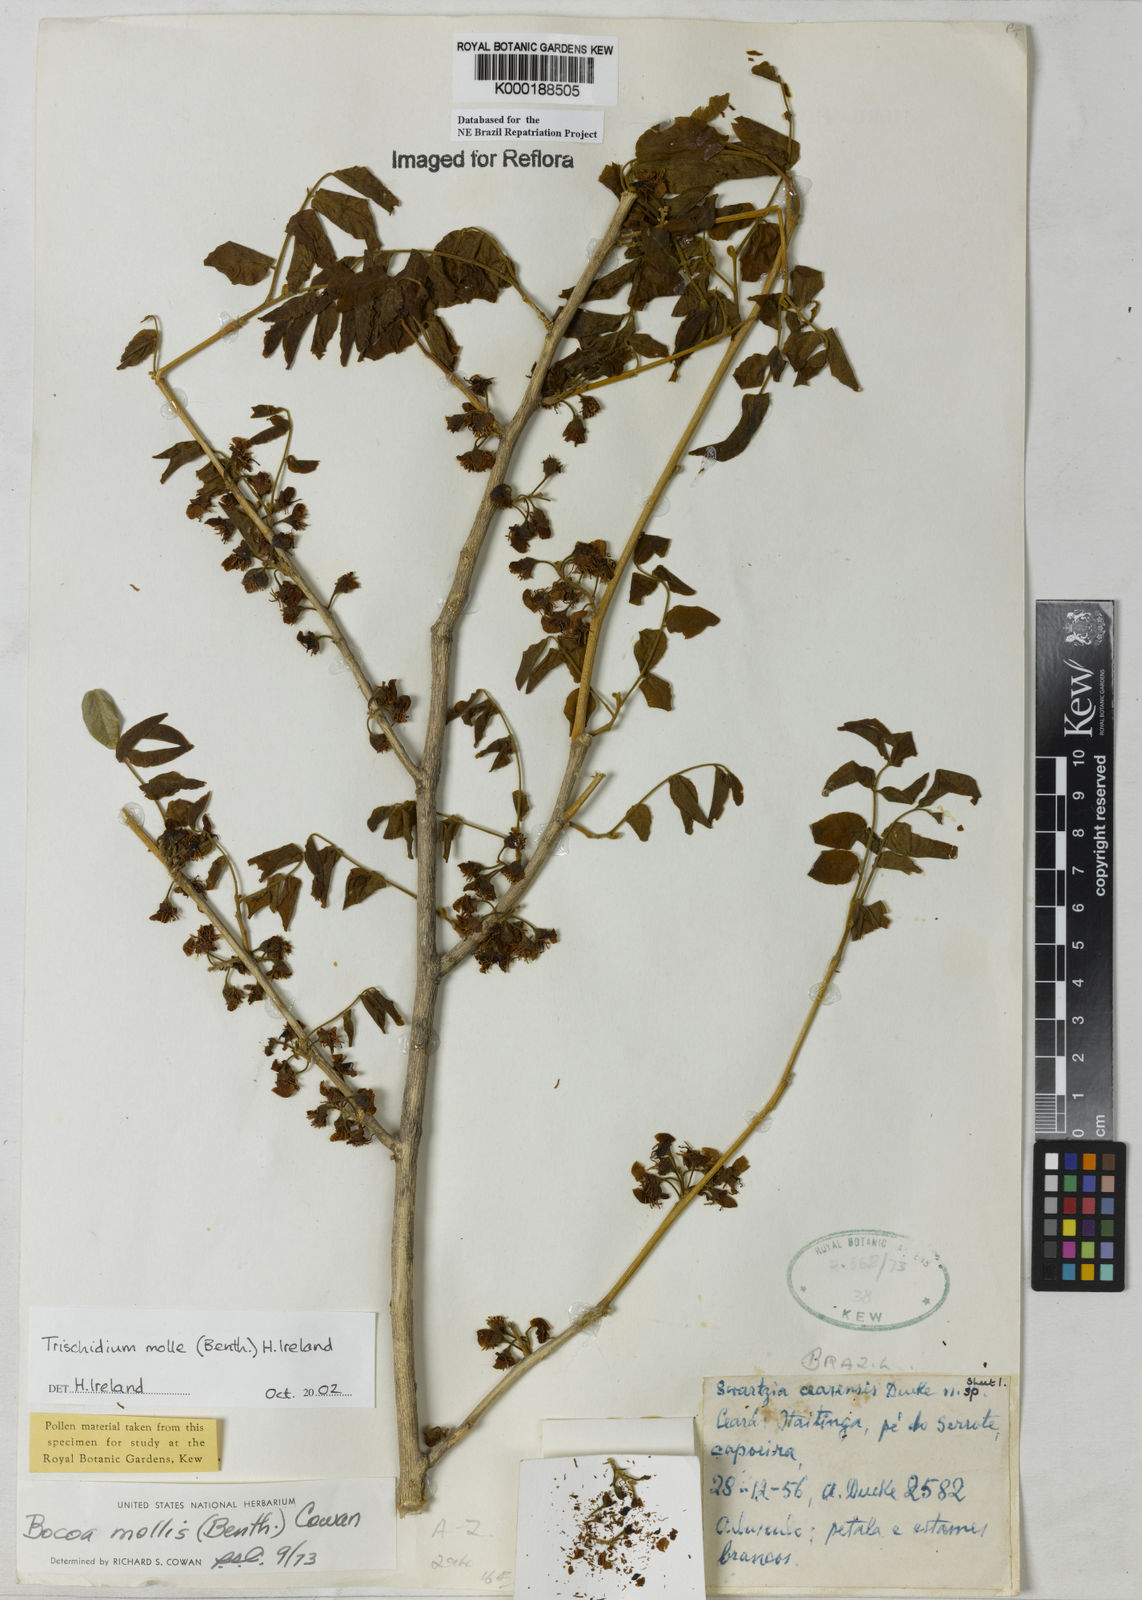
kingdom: Plantae
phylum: Tracheophyta
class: Magnoliopsida
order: Fabales
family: Fabaceae
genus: Trischidium
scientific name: Trischidium
